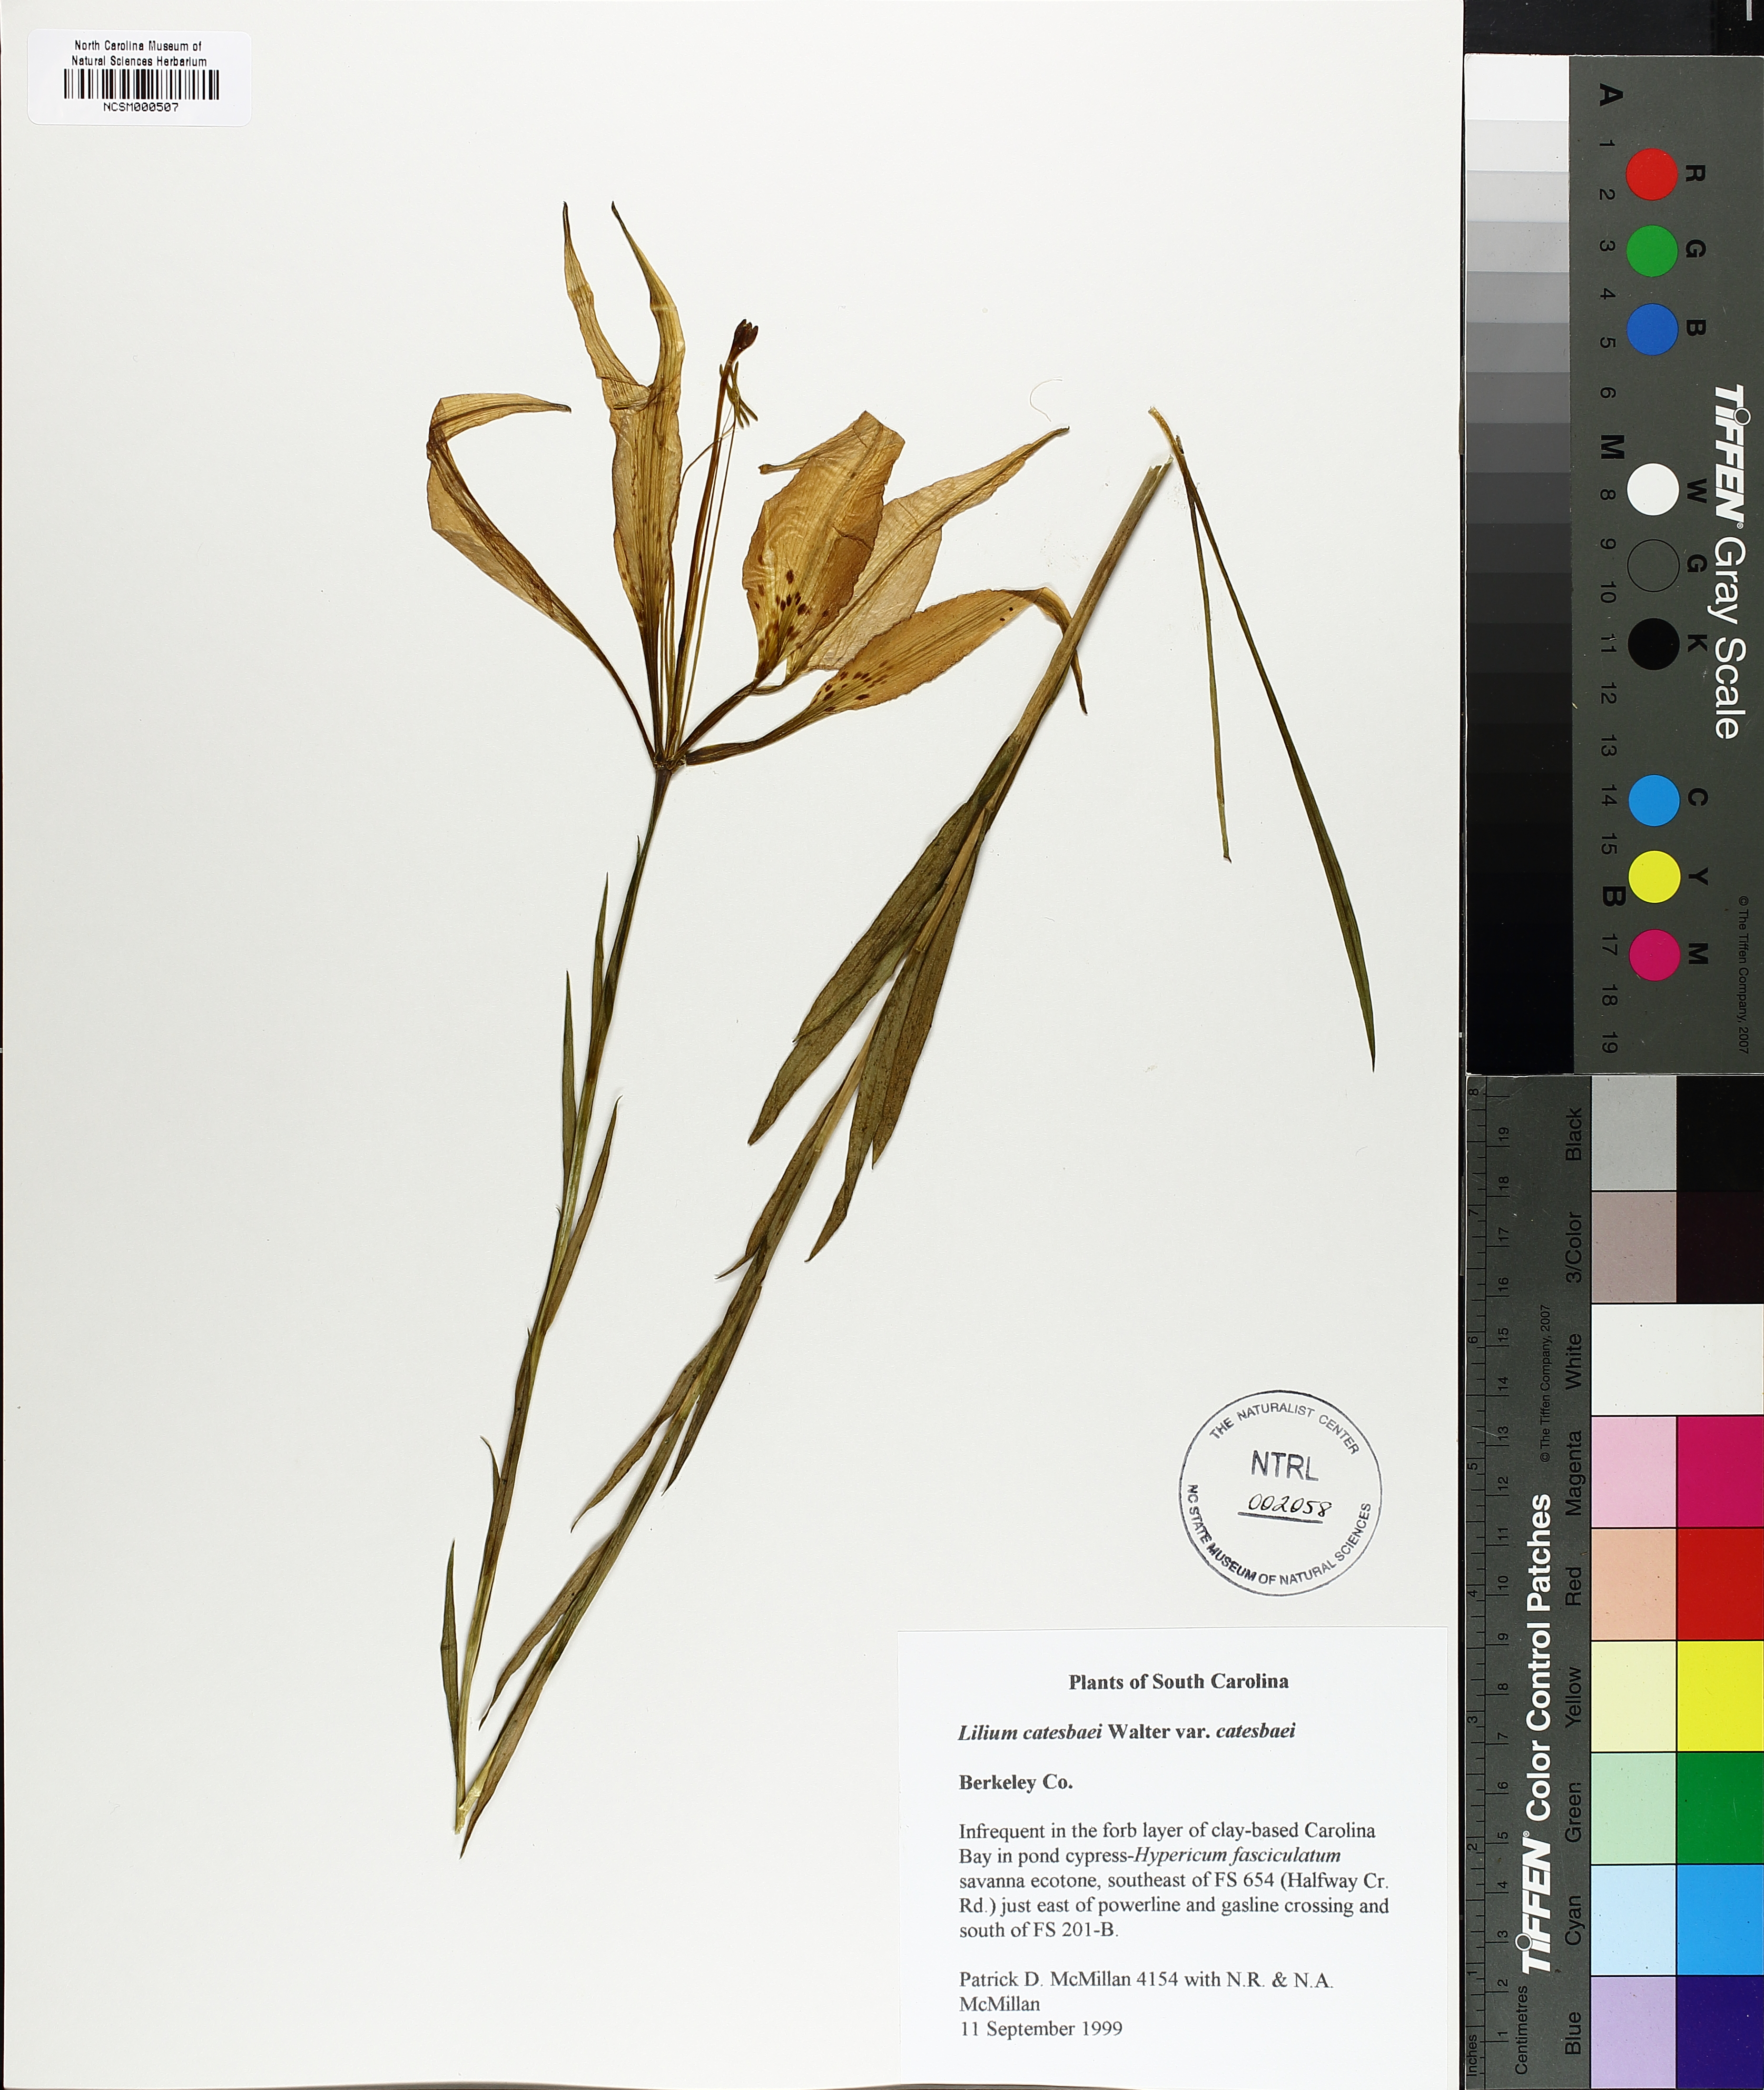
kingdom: Plantae
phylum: Tracheophyta
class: Liliopsida
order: Liliales
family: Liliaceae
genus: Lilium
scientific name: Lilium catesbaei
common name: Catesby's lily
